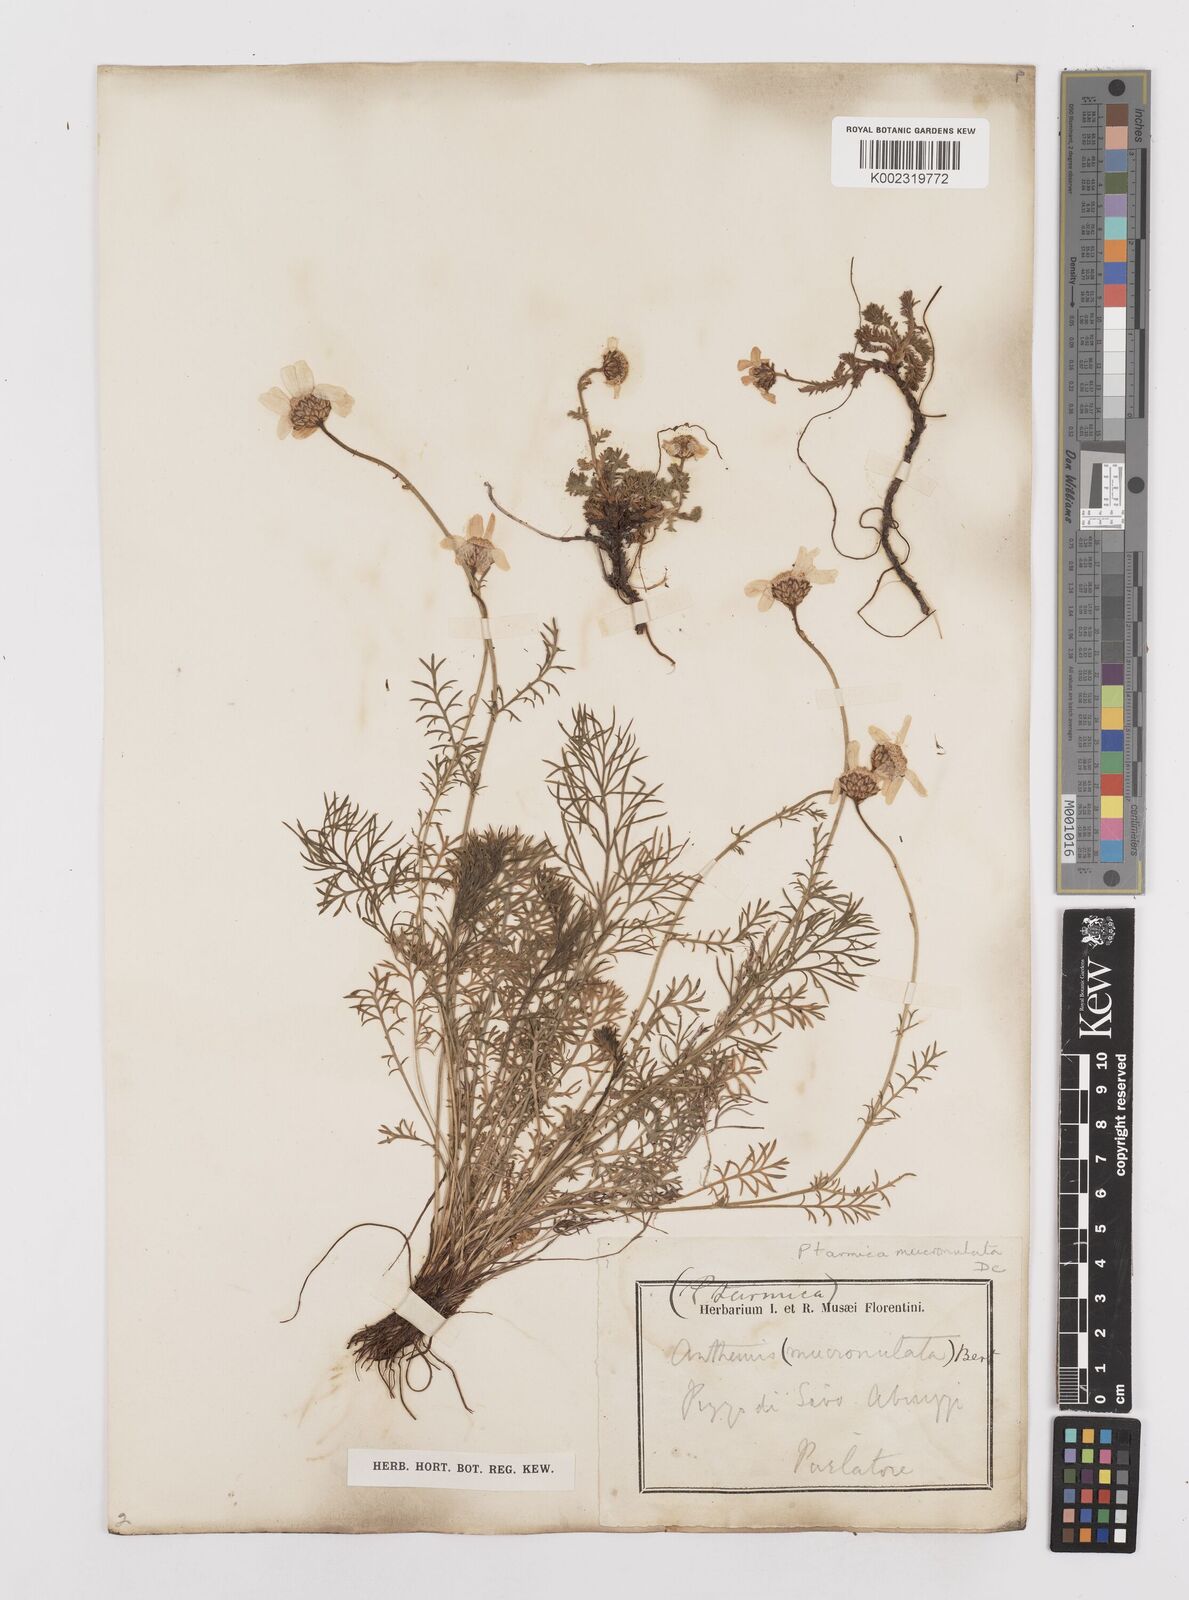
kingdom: Plantae
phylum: Tracheophyta
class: Magnoliopsida
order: Asterales
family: Asteraceae
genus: Achillea
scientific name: Achillea barrelieri
